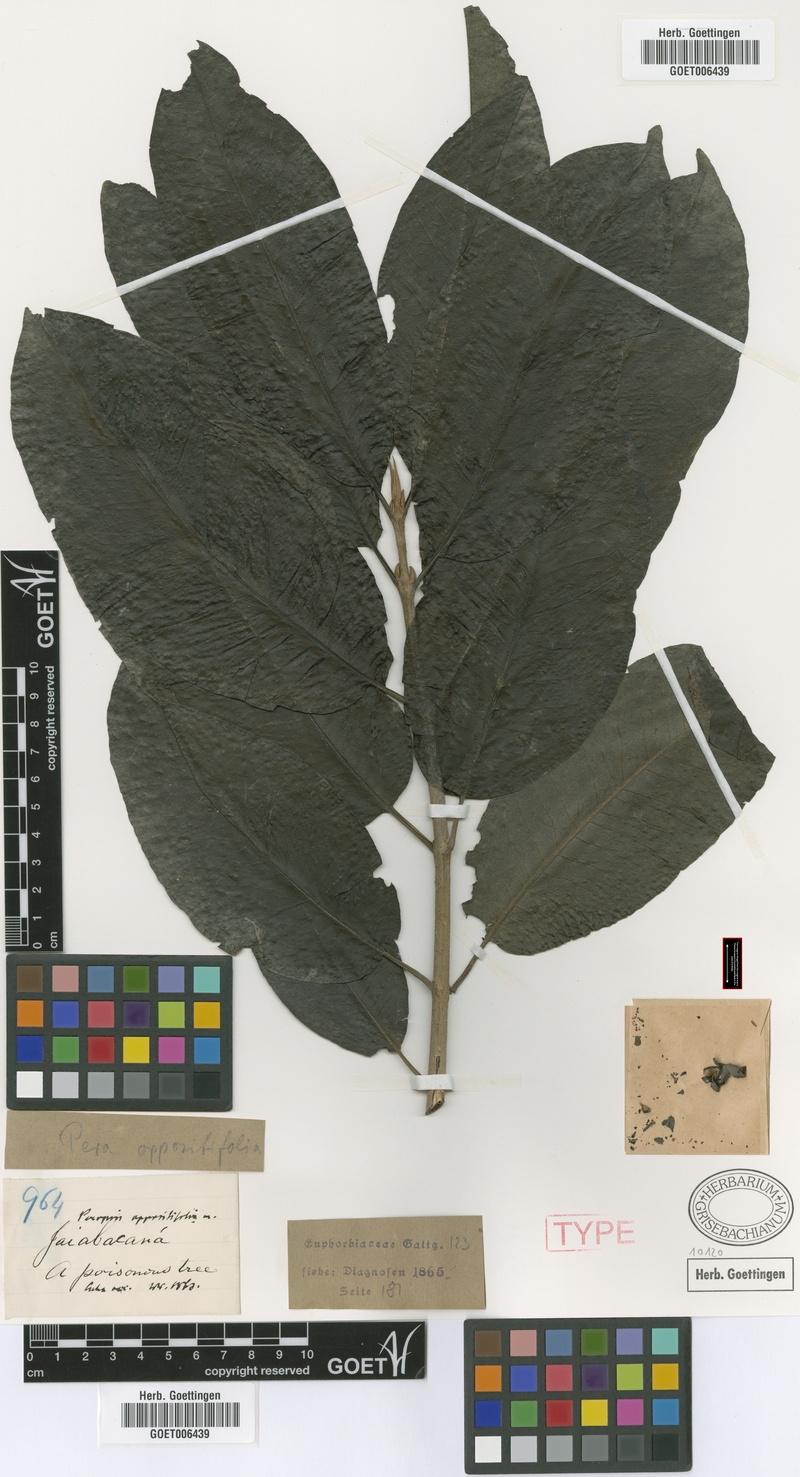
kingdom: Plantae
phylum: Tracheophyta
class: Magnoliopsida
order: Malpighiales
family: Peraceae
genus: Pera
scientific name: Pera oppositifolia
